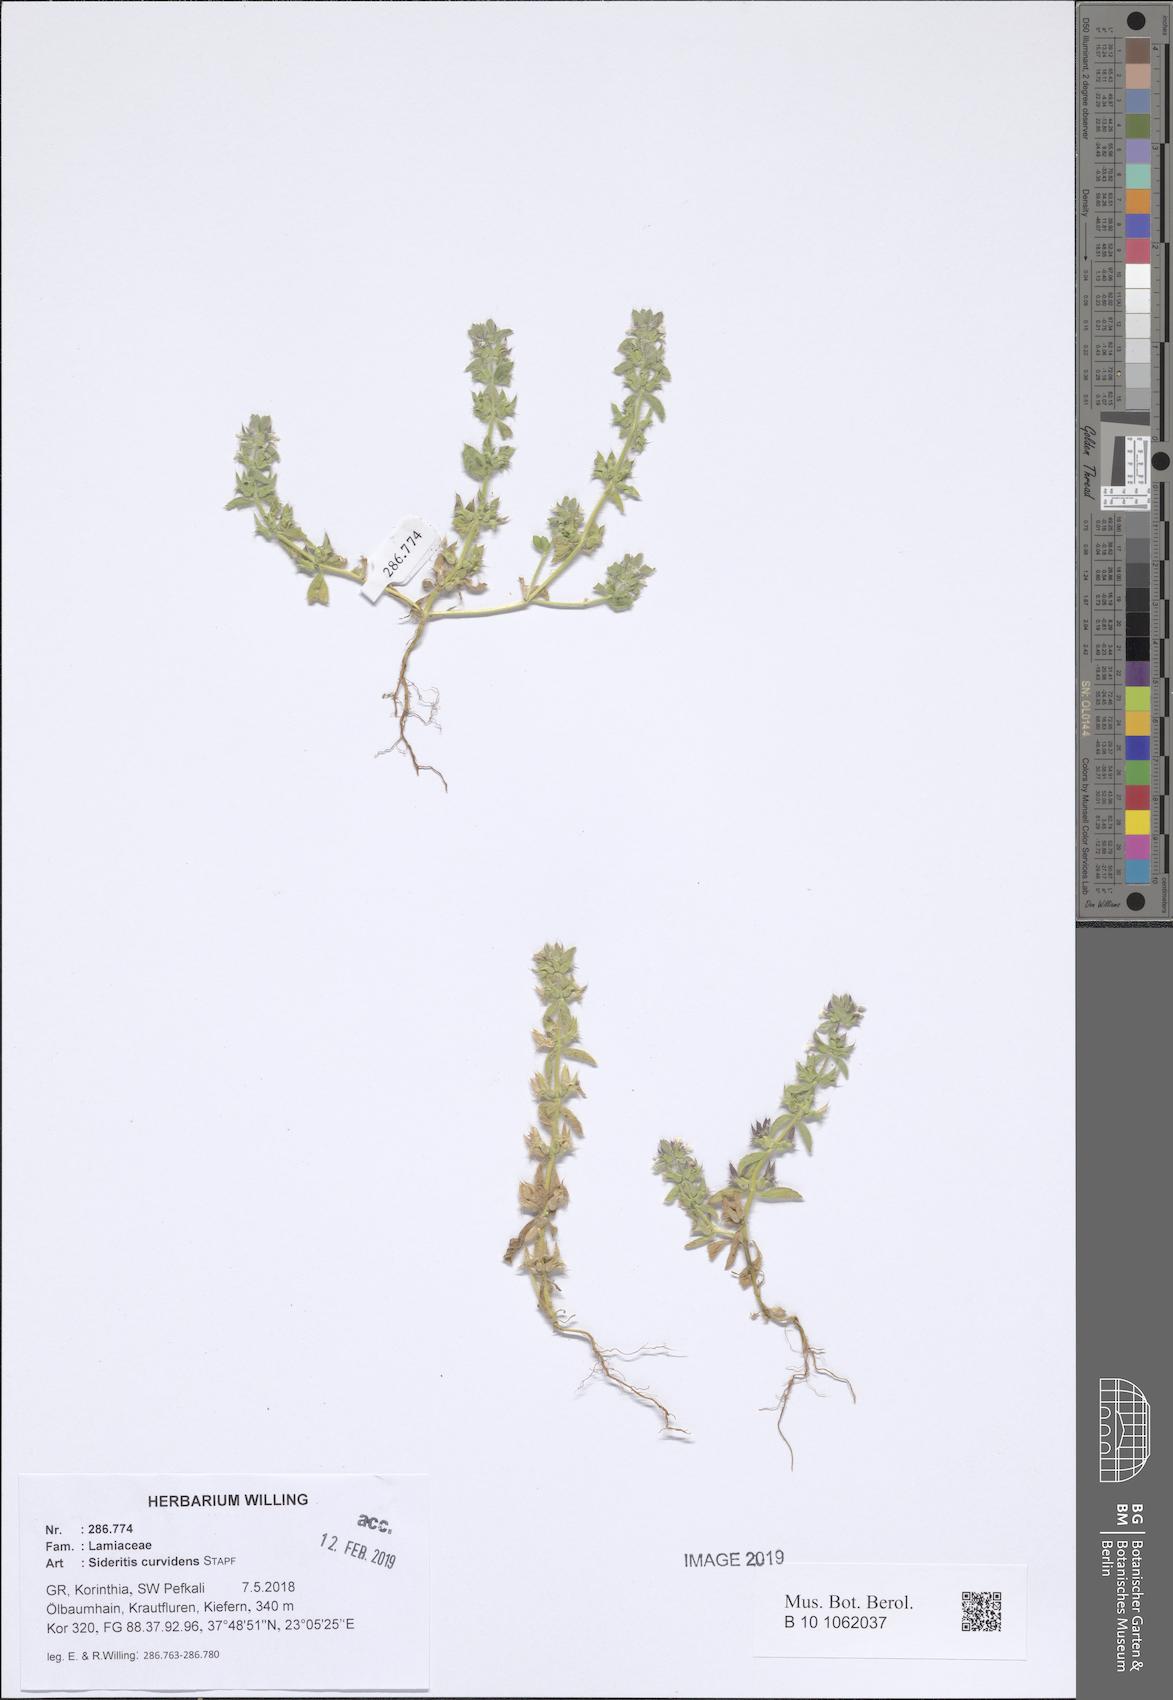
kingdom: Plantae
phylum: Tracheophyta
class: Magnoliopsida
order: Lamiales
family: Lamiaceae
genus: Sideritis
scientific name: Sideritis romana
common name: Simplebeak ironwort
